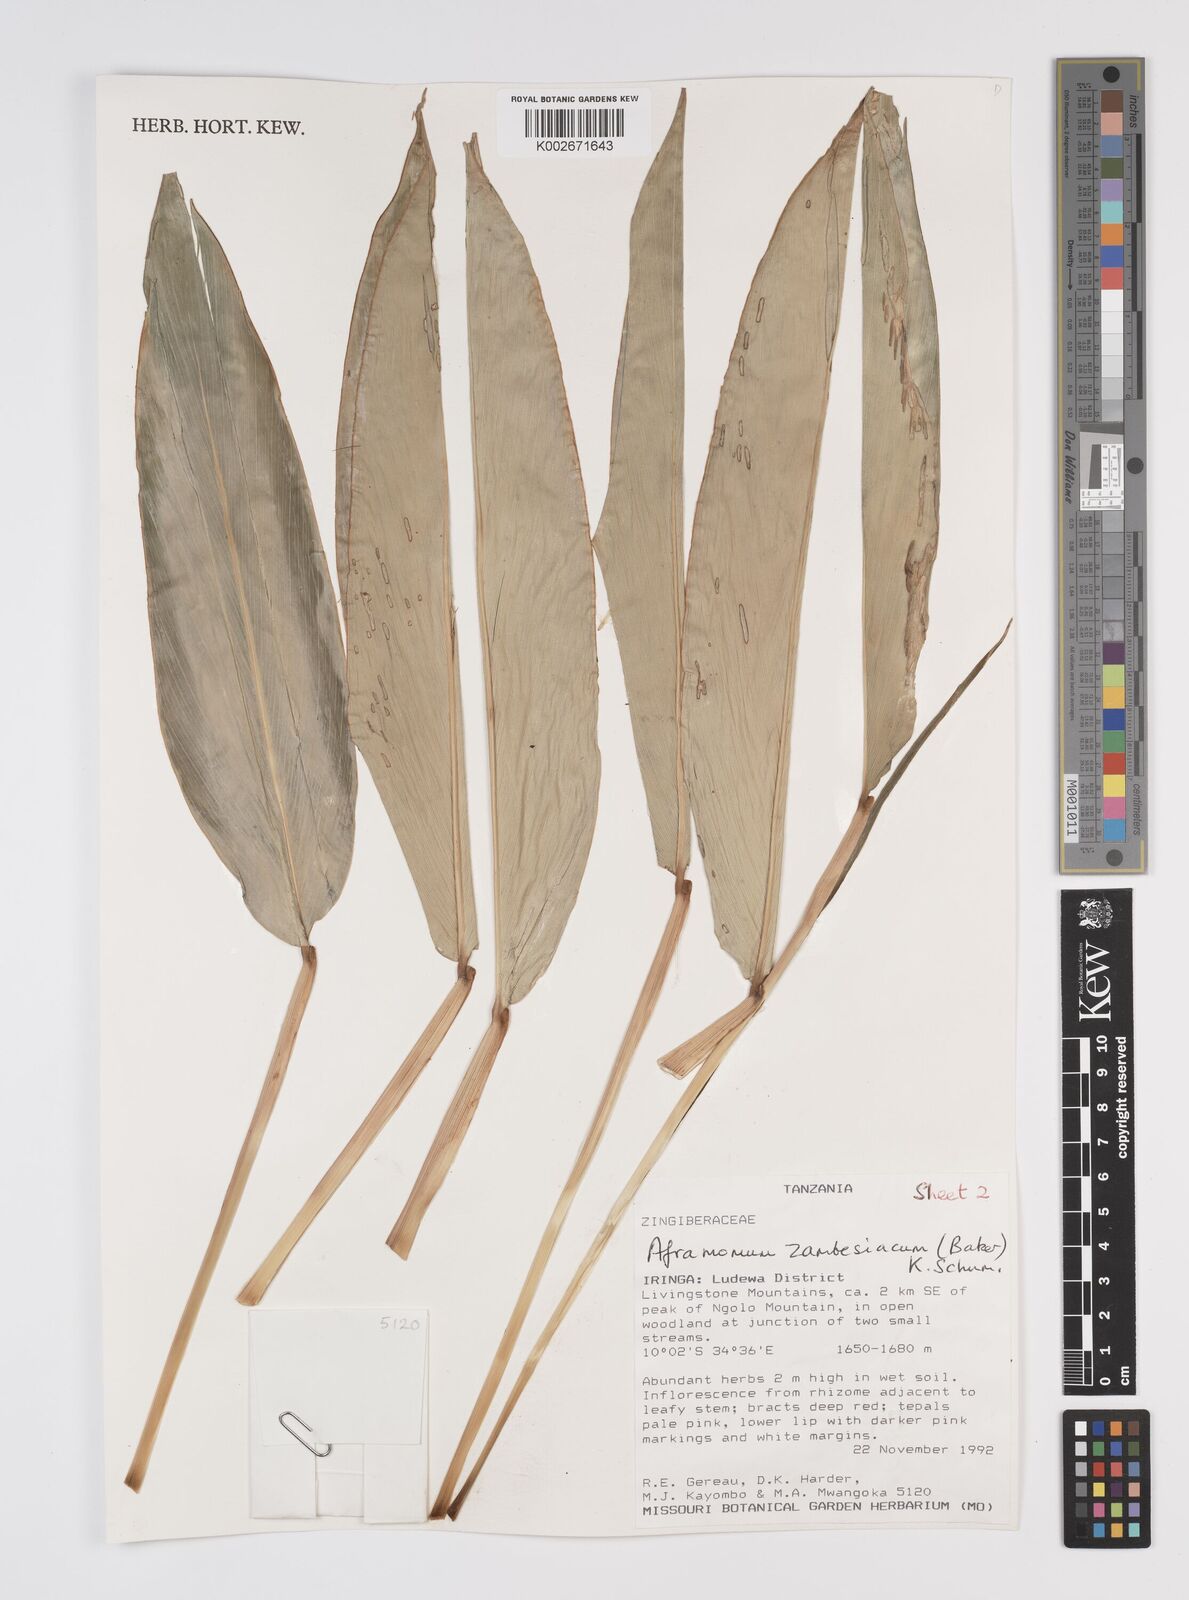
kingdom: Plantae
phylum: Tracheophyta
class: Liliopsida
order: Zingiberales
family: Zingiberaceae
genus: Aframomum
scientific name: Aframomum zambesiacum
